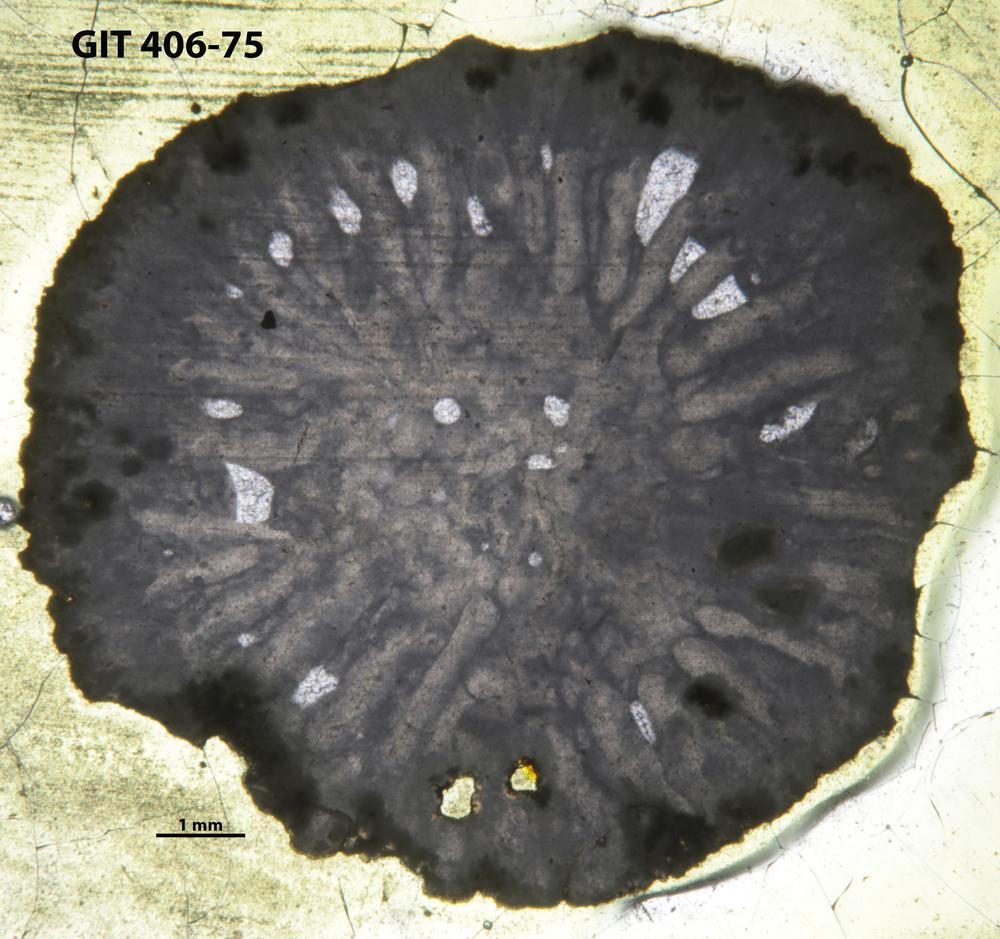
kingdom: Animalia
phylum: Cnidaria
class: Anthozoa
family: Streptelasmatidae
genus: Grewingkia
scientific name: Grewingkia
